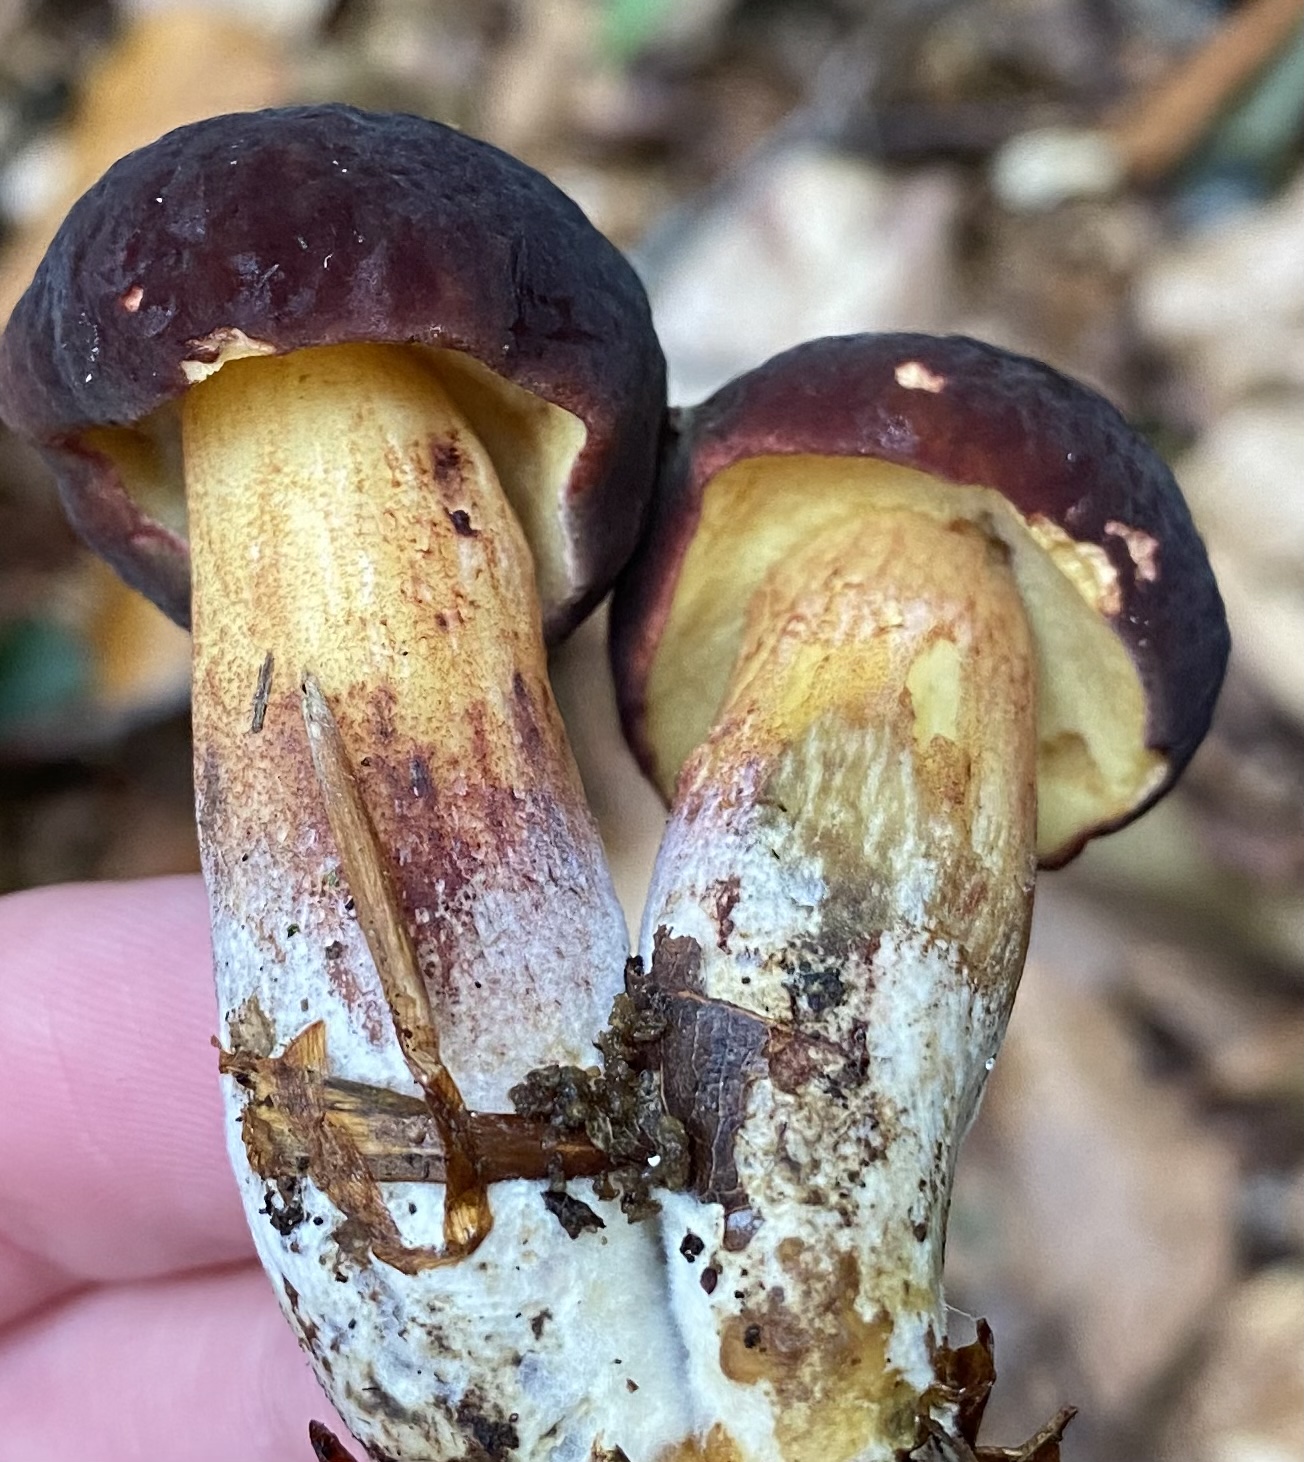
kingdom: Fungi
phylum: Basidiomycota
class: Agaricomycetes
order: Boletales
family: Boletaceae
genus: Xerocomellus
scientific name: Xerocomellus pruinatus
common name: dugget rørhat
